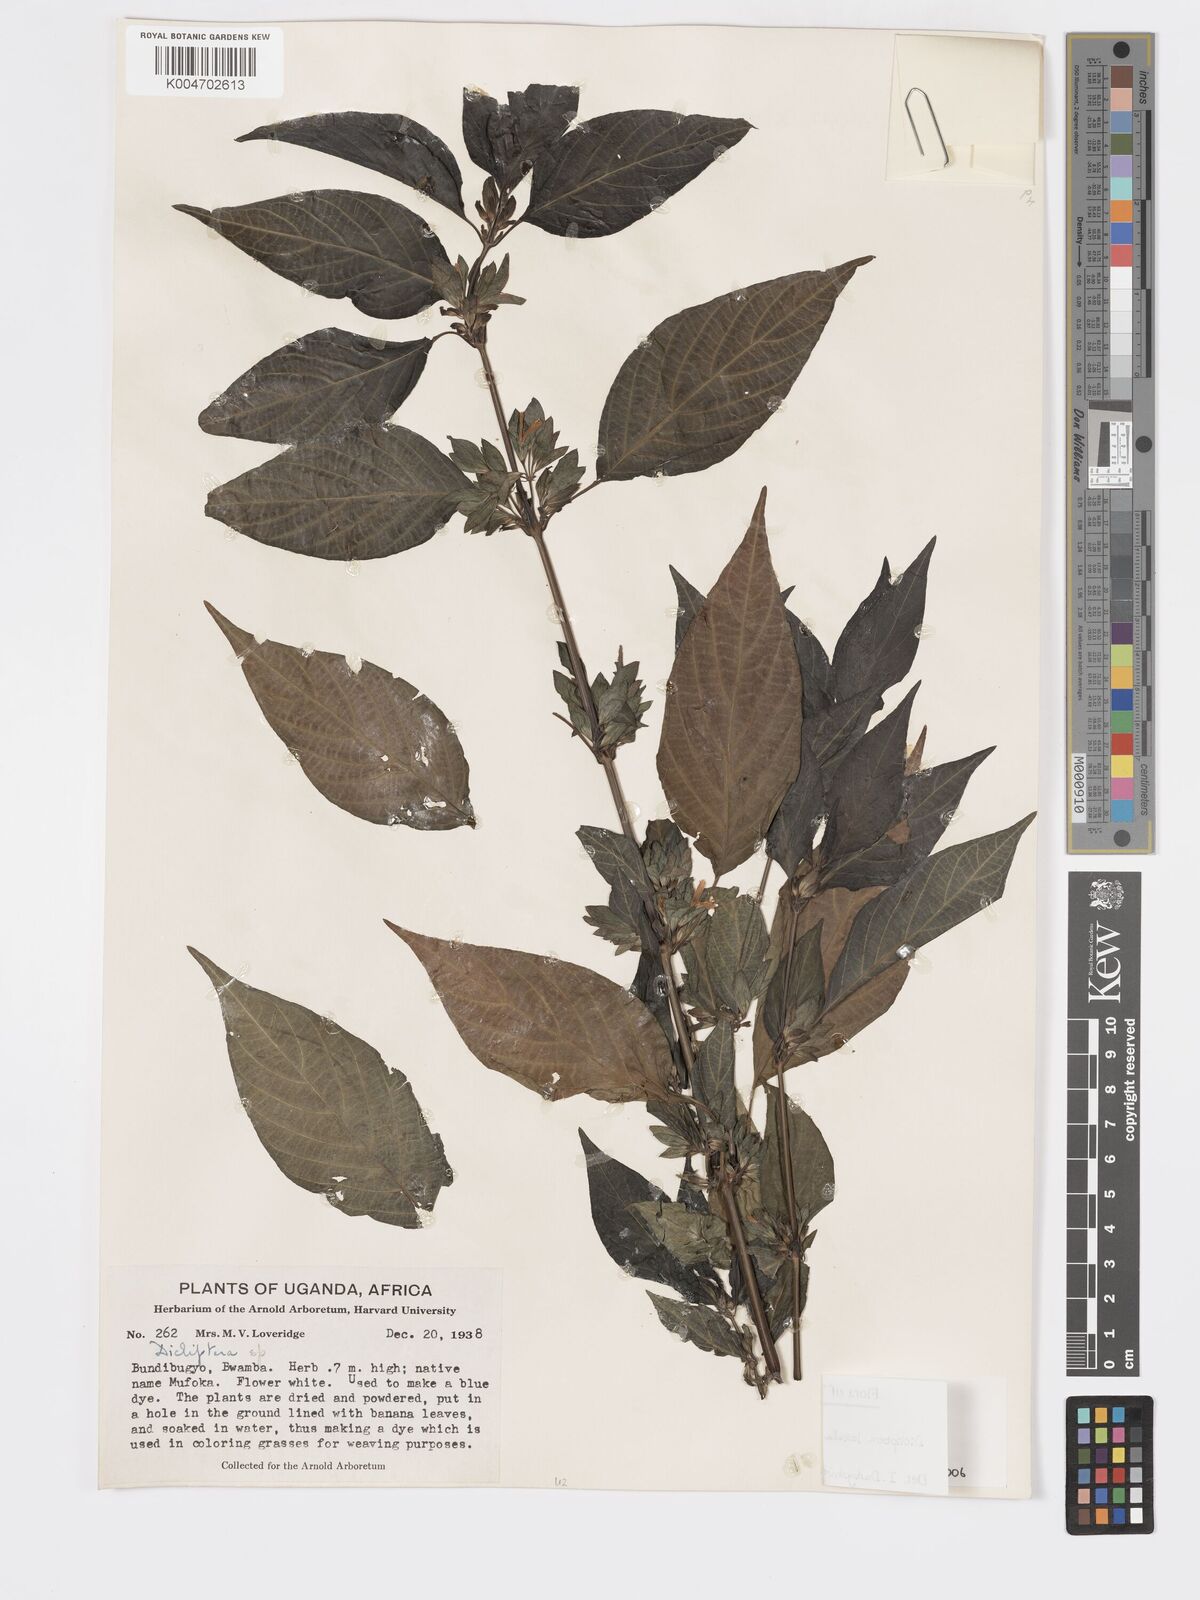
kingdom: Plantae
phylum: Tracheophyta
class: Magnoliopsida
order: Lamiales
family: Acanthaceae
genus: Dicliptera
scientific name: Dicliptera laxata
